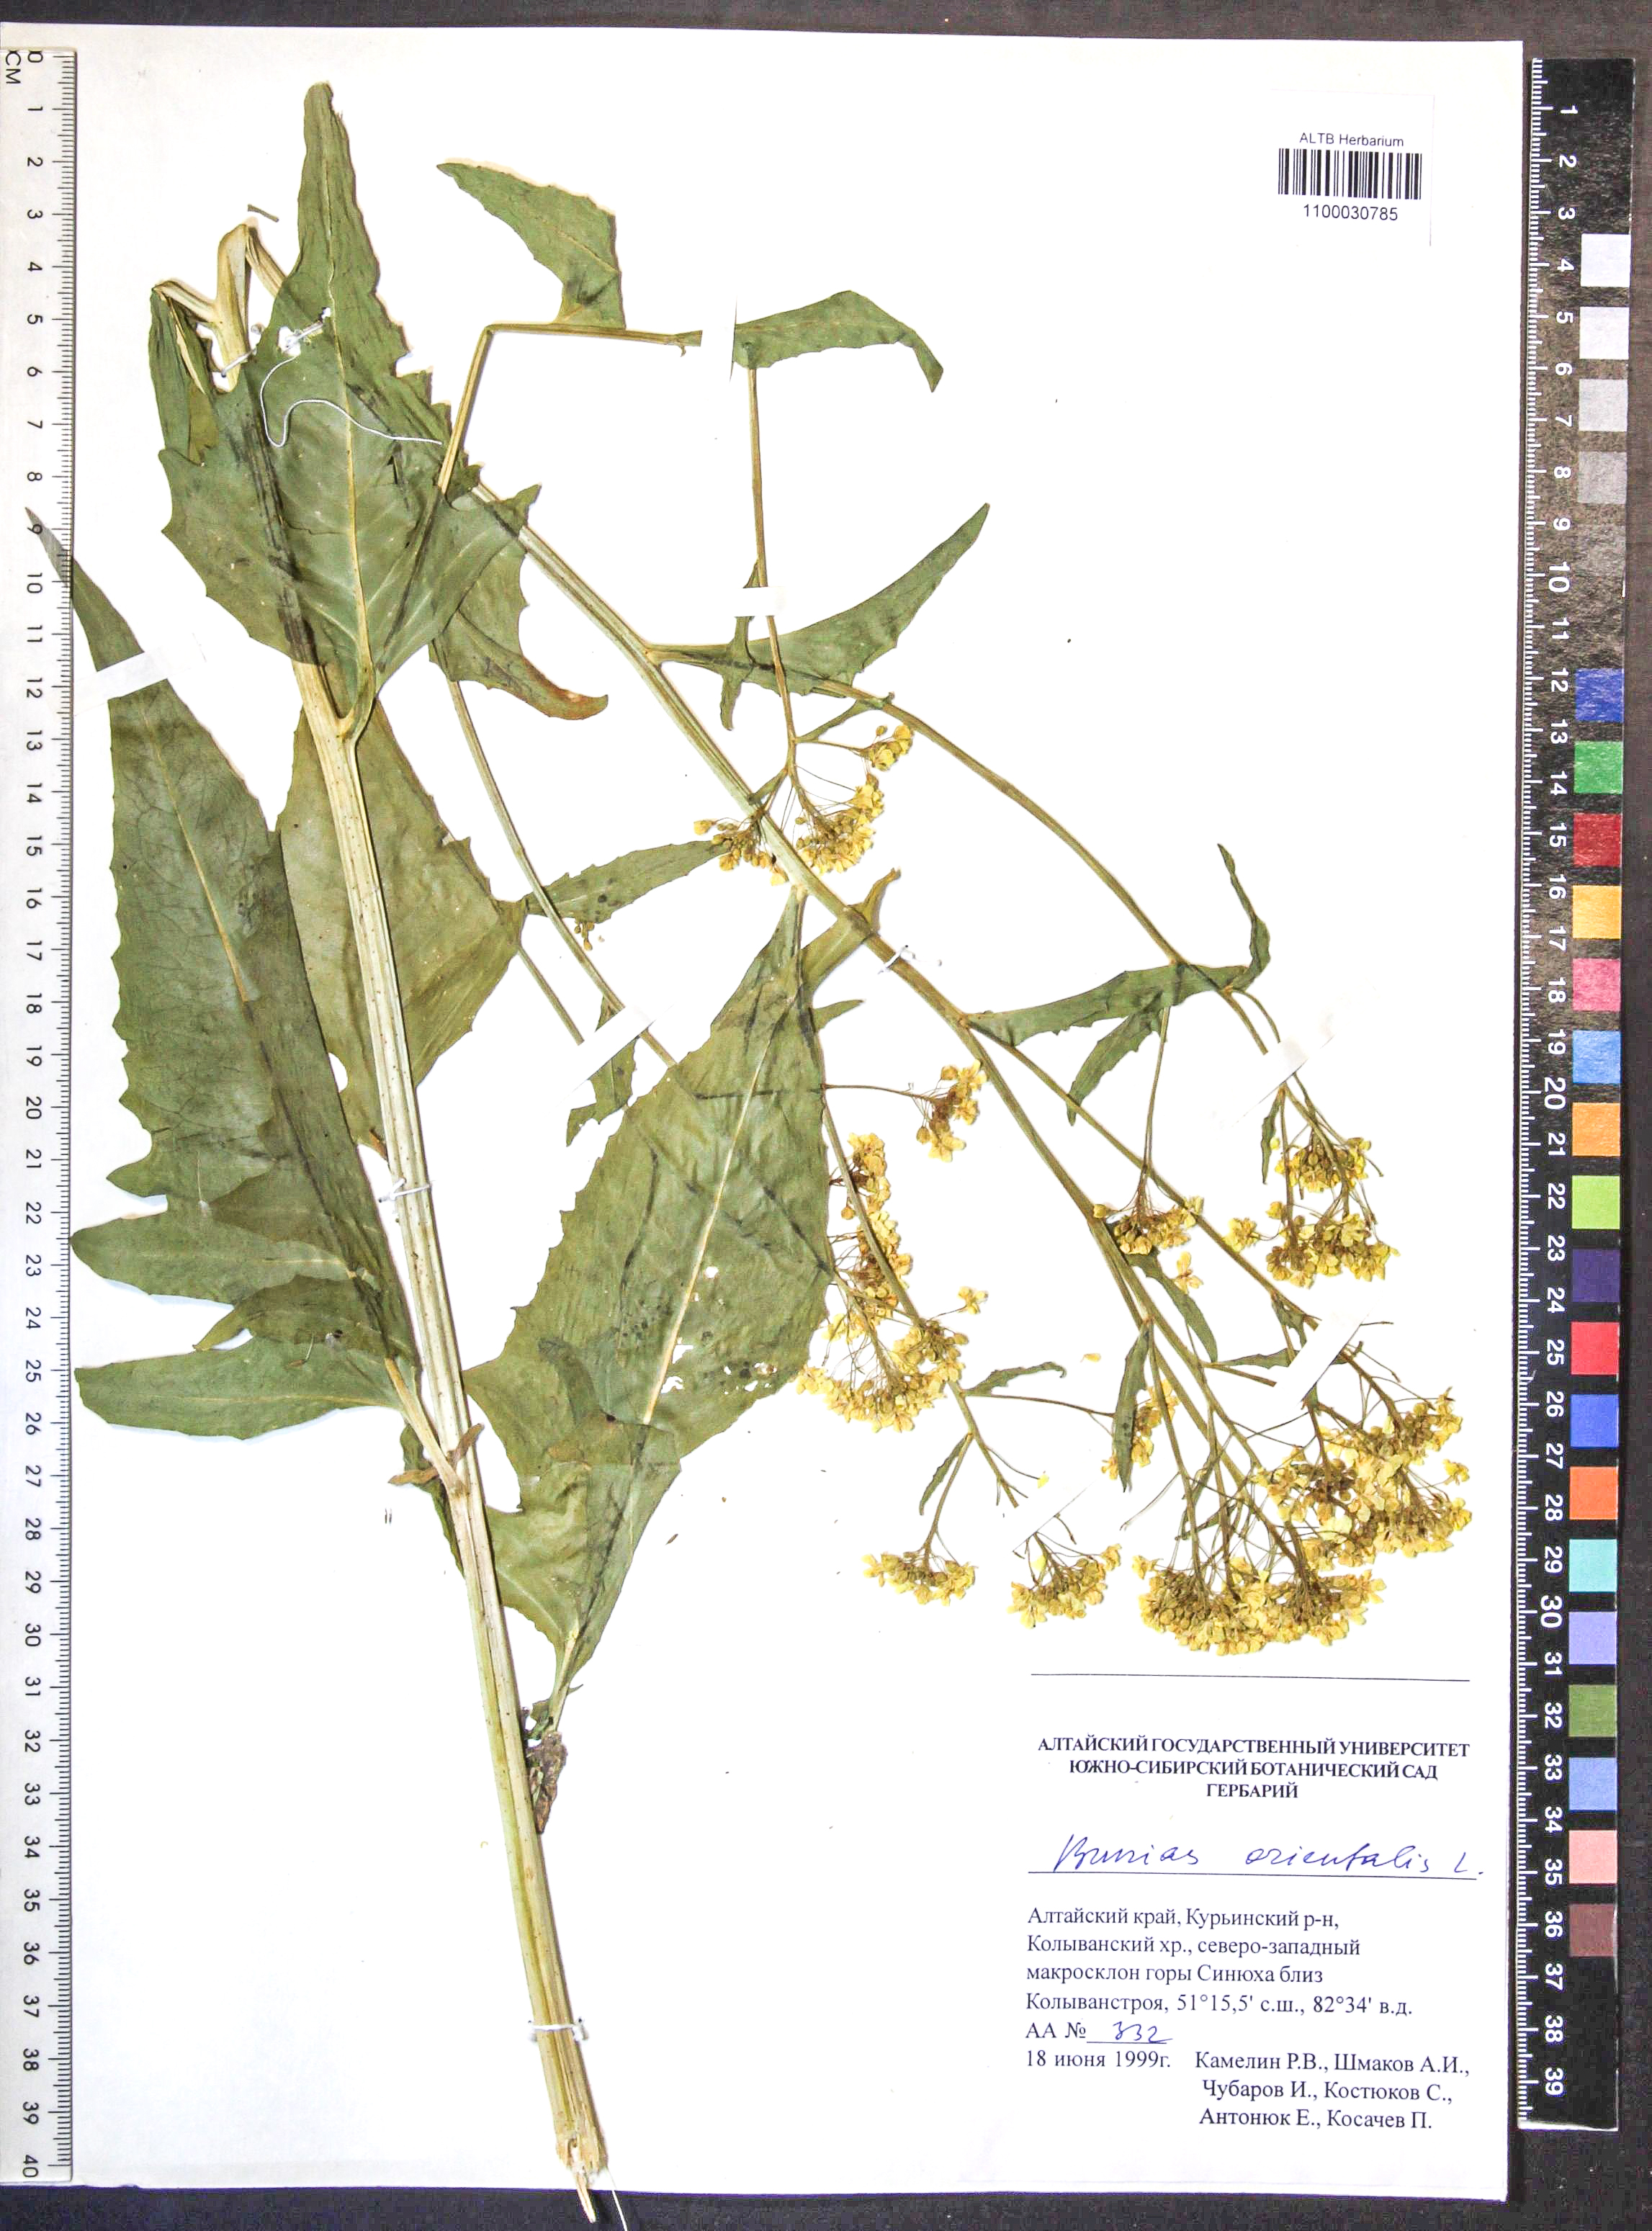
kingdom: Plantae
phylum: Tracheophyta
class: Magnoliopsida
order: Brassicales
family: Brassicaceae
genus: Bunias
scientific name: Bunias orientalis
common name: Warty-cabbage
